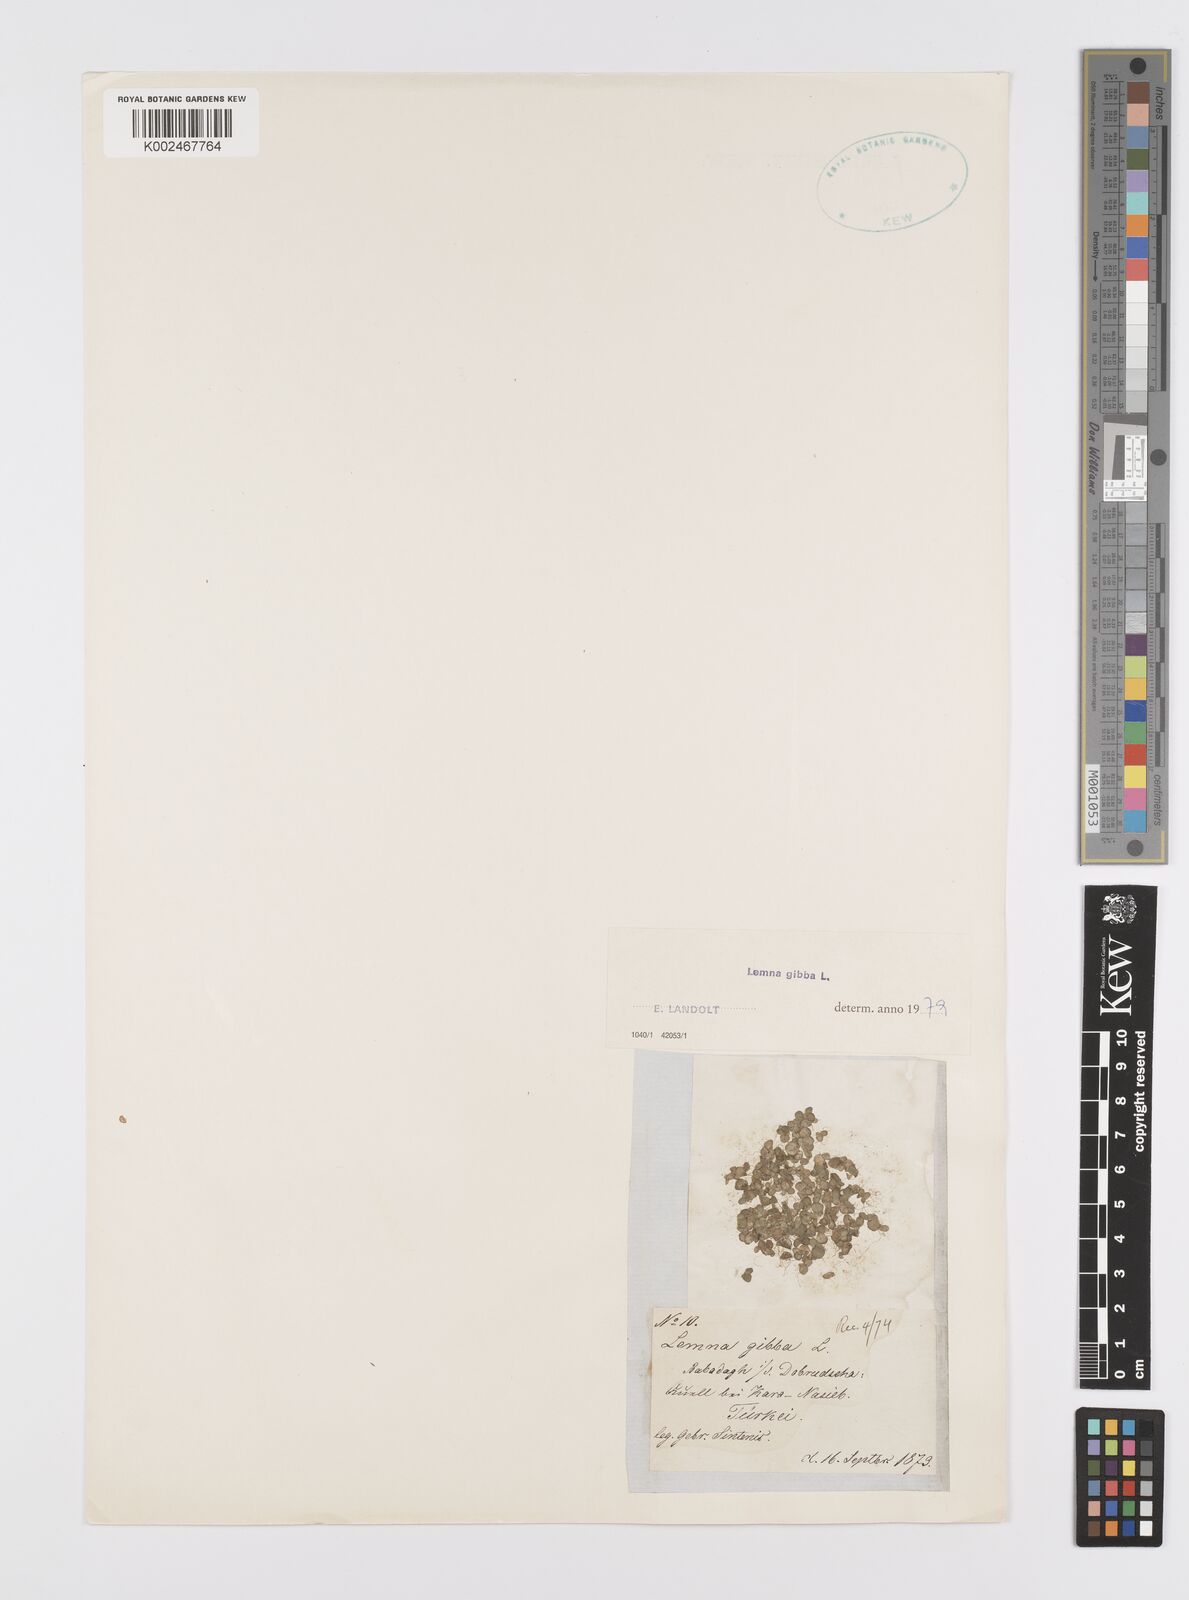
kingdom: Plantae
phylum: Tracheophyta
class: Liliopsida
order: Alismatales
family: Araceae
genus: Lemna
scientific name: Lemna gibba
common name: Fat duckweed
